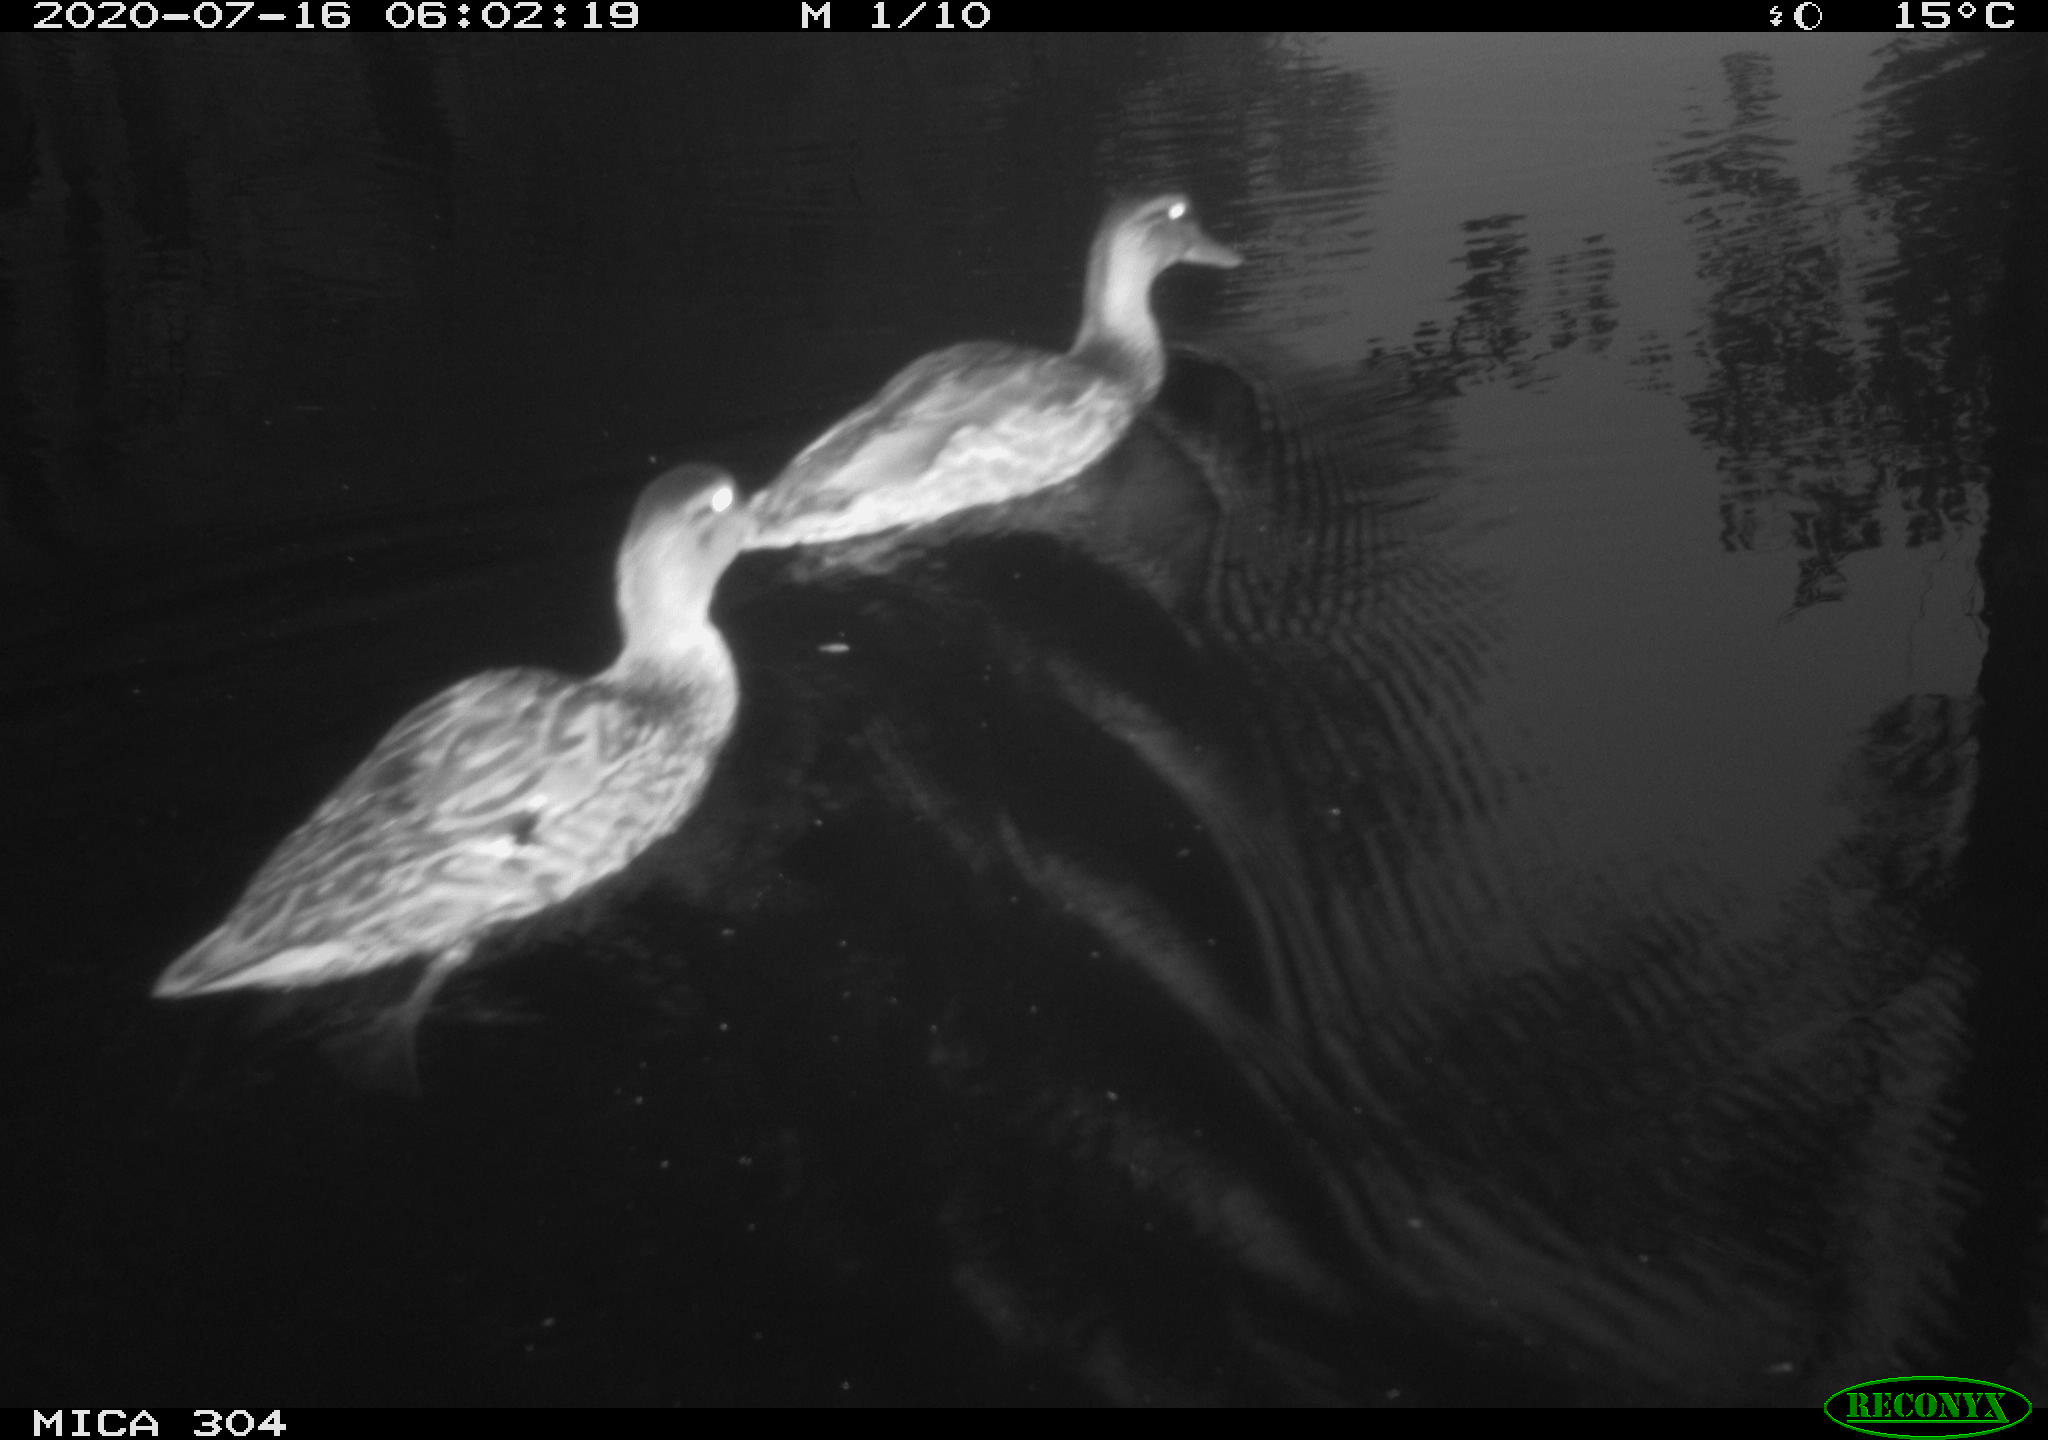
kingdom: Animalia
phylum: Chordata
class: Aves
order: Anseriformes
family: Anatidae
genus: Anas
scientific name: Anas platyrhynchos
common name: Mallard
